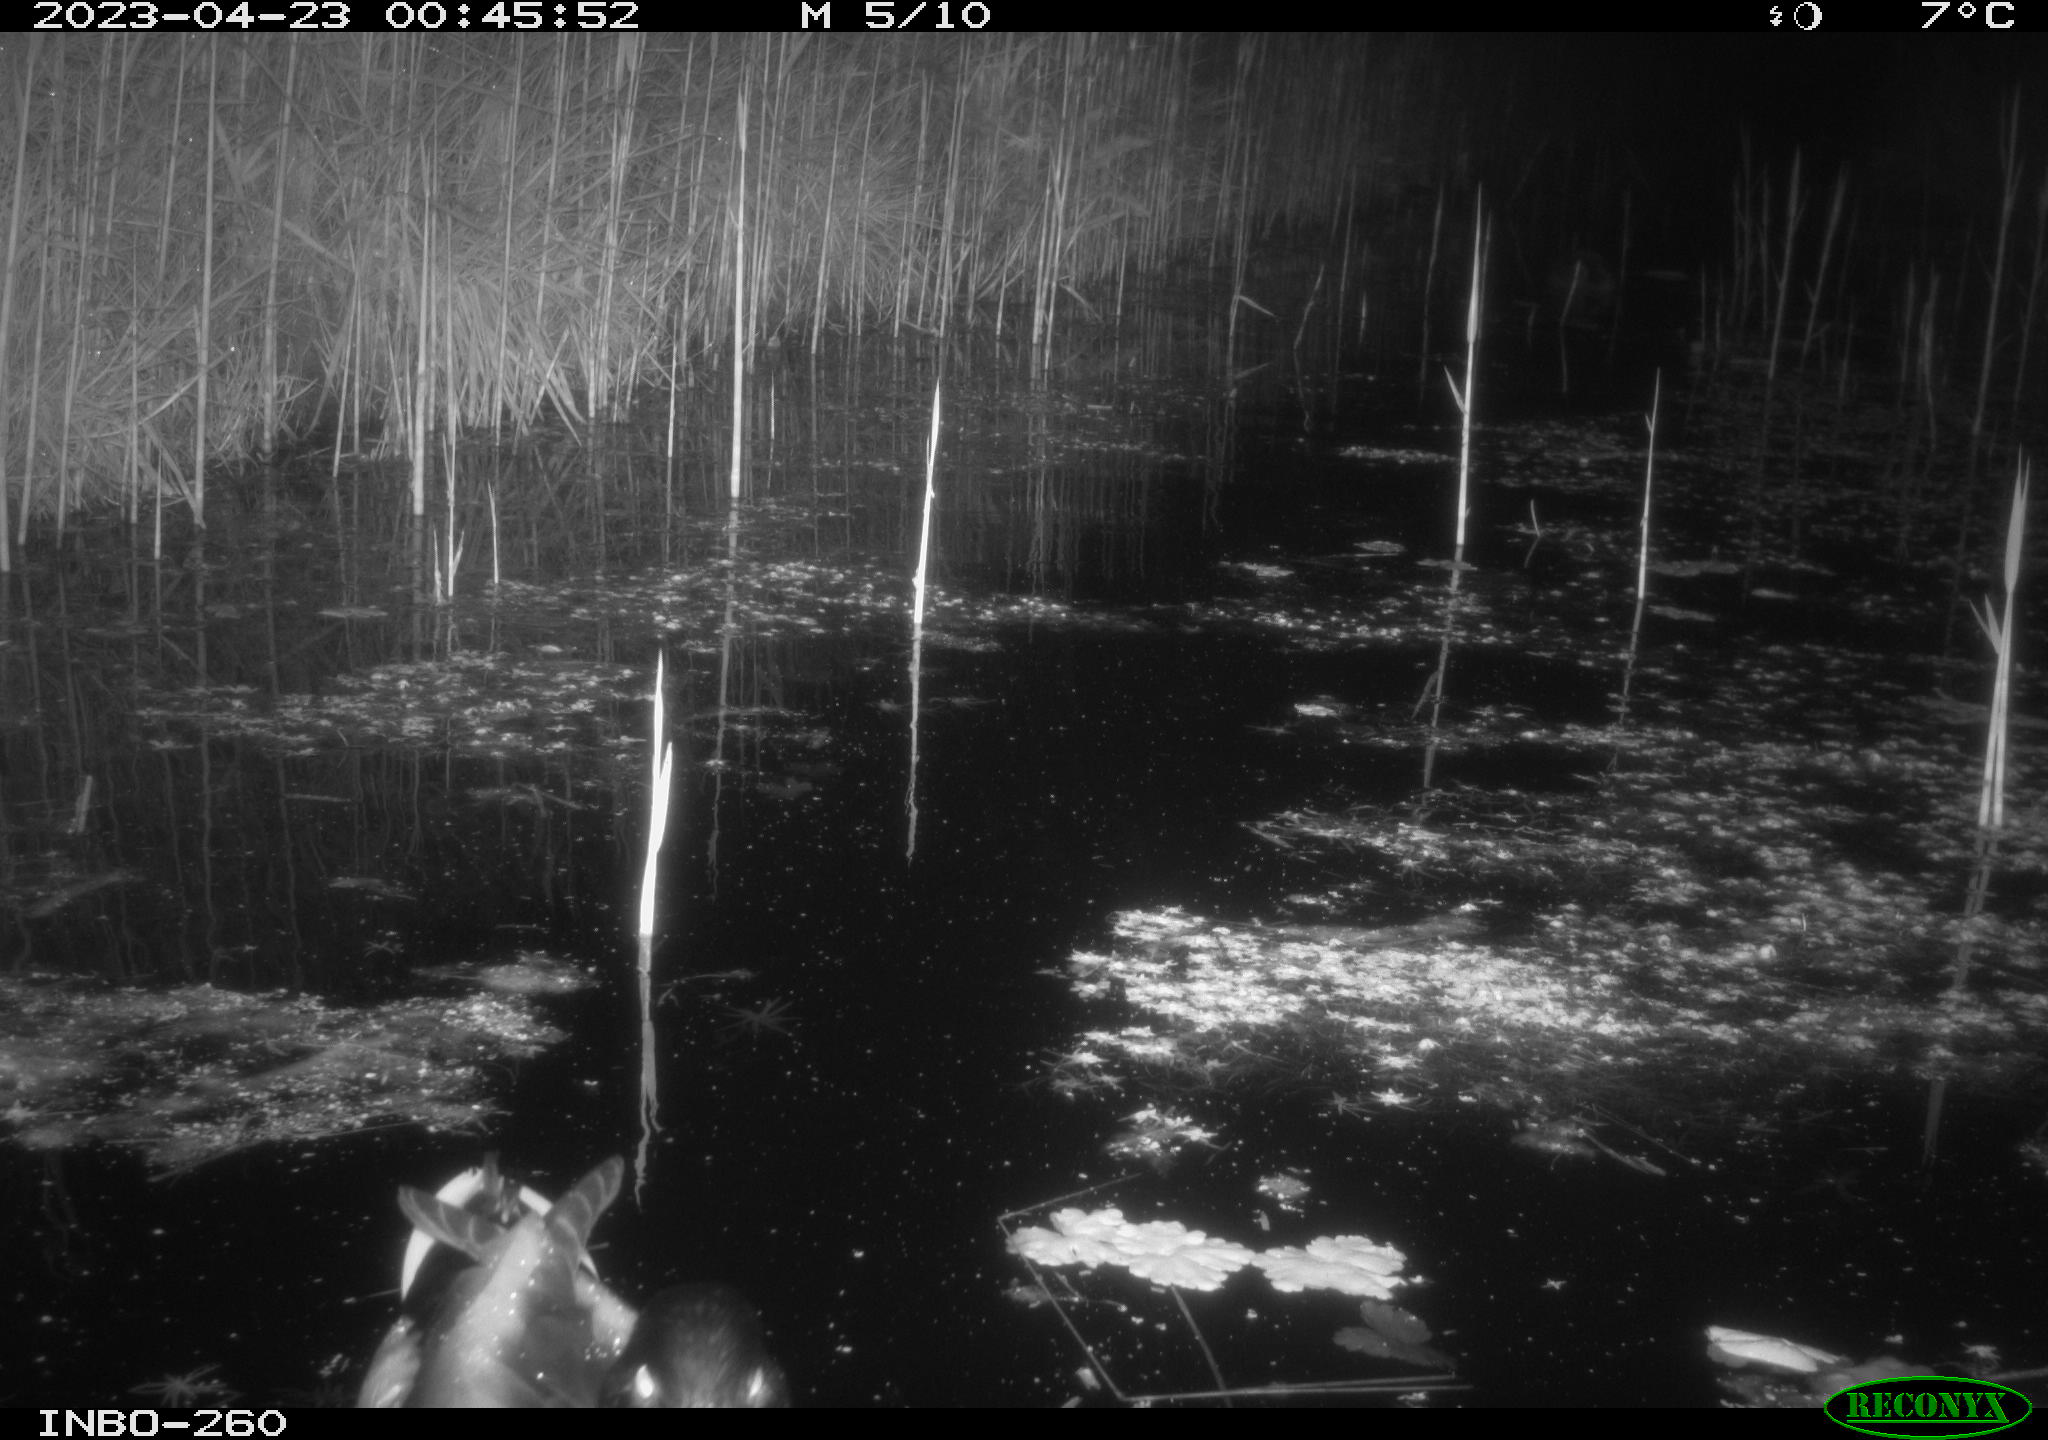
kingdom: Animalia
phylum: Chordata
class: Aves
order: Anseriformes
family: Anatidae
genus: Anas
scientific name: Anas
